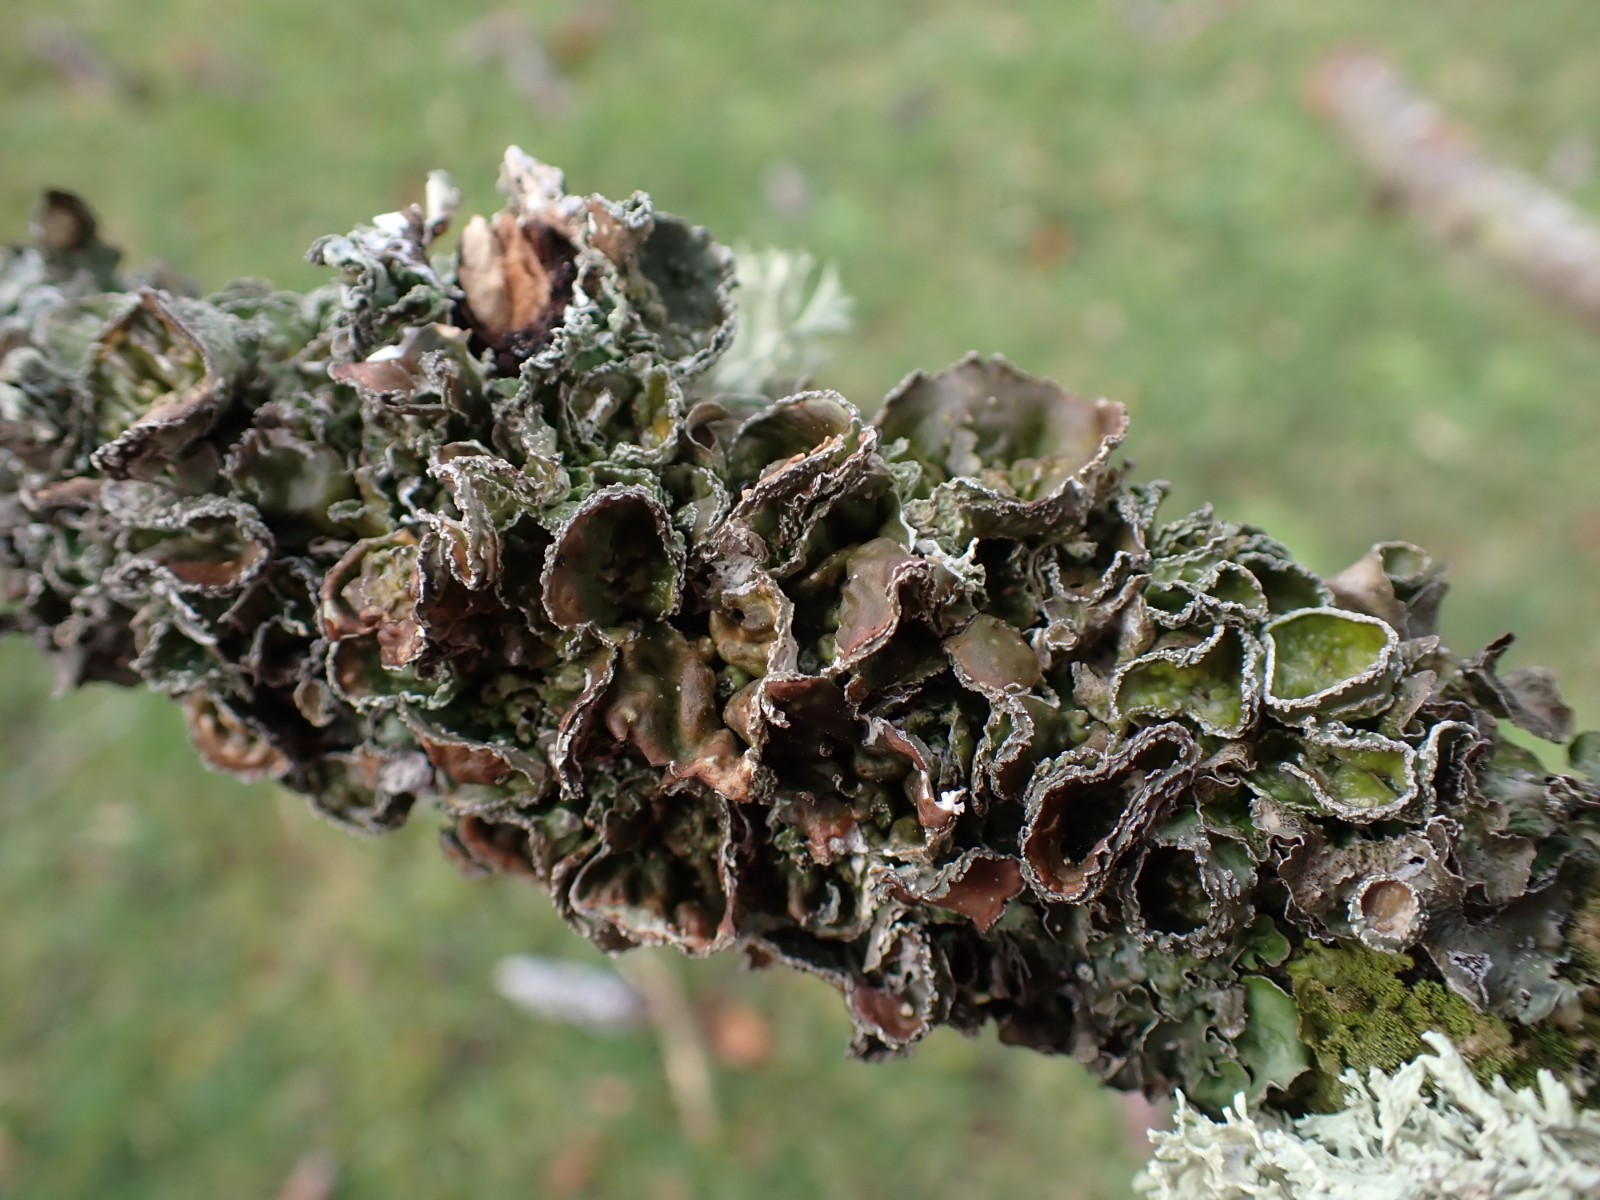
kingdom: Fungi
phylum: Ascomycota
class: Lecanoromycetes
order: Lecanorales
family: Parmeliaceae
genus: Pleurosticta
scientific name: Pleurosticta acetabulum
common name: stor skållav
